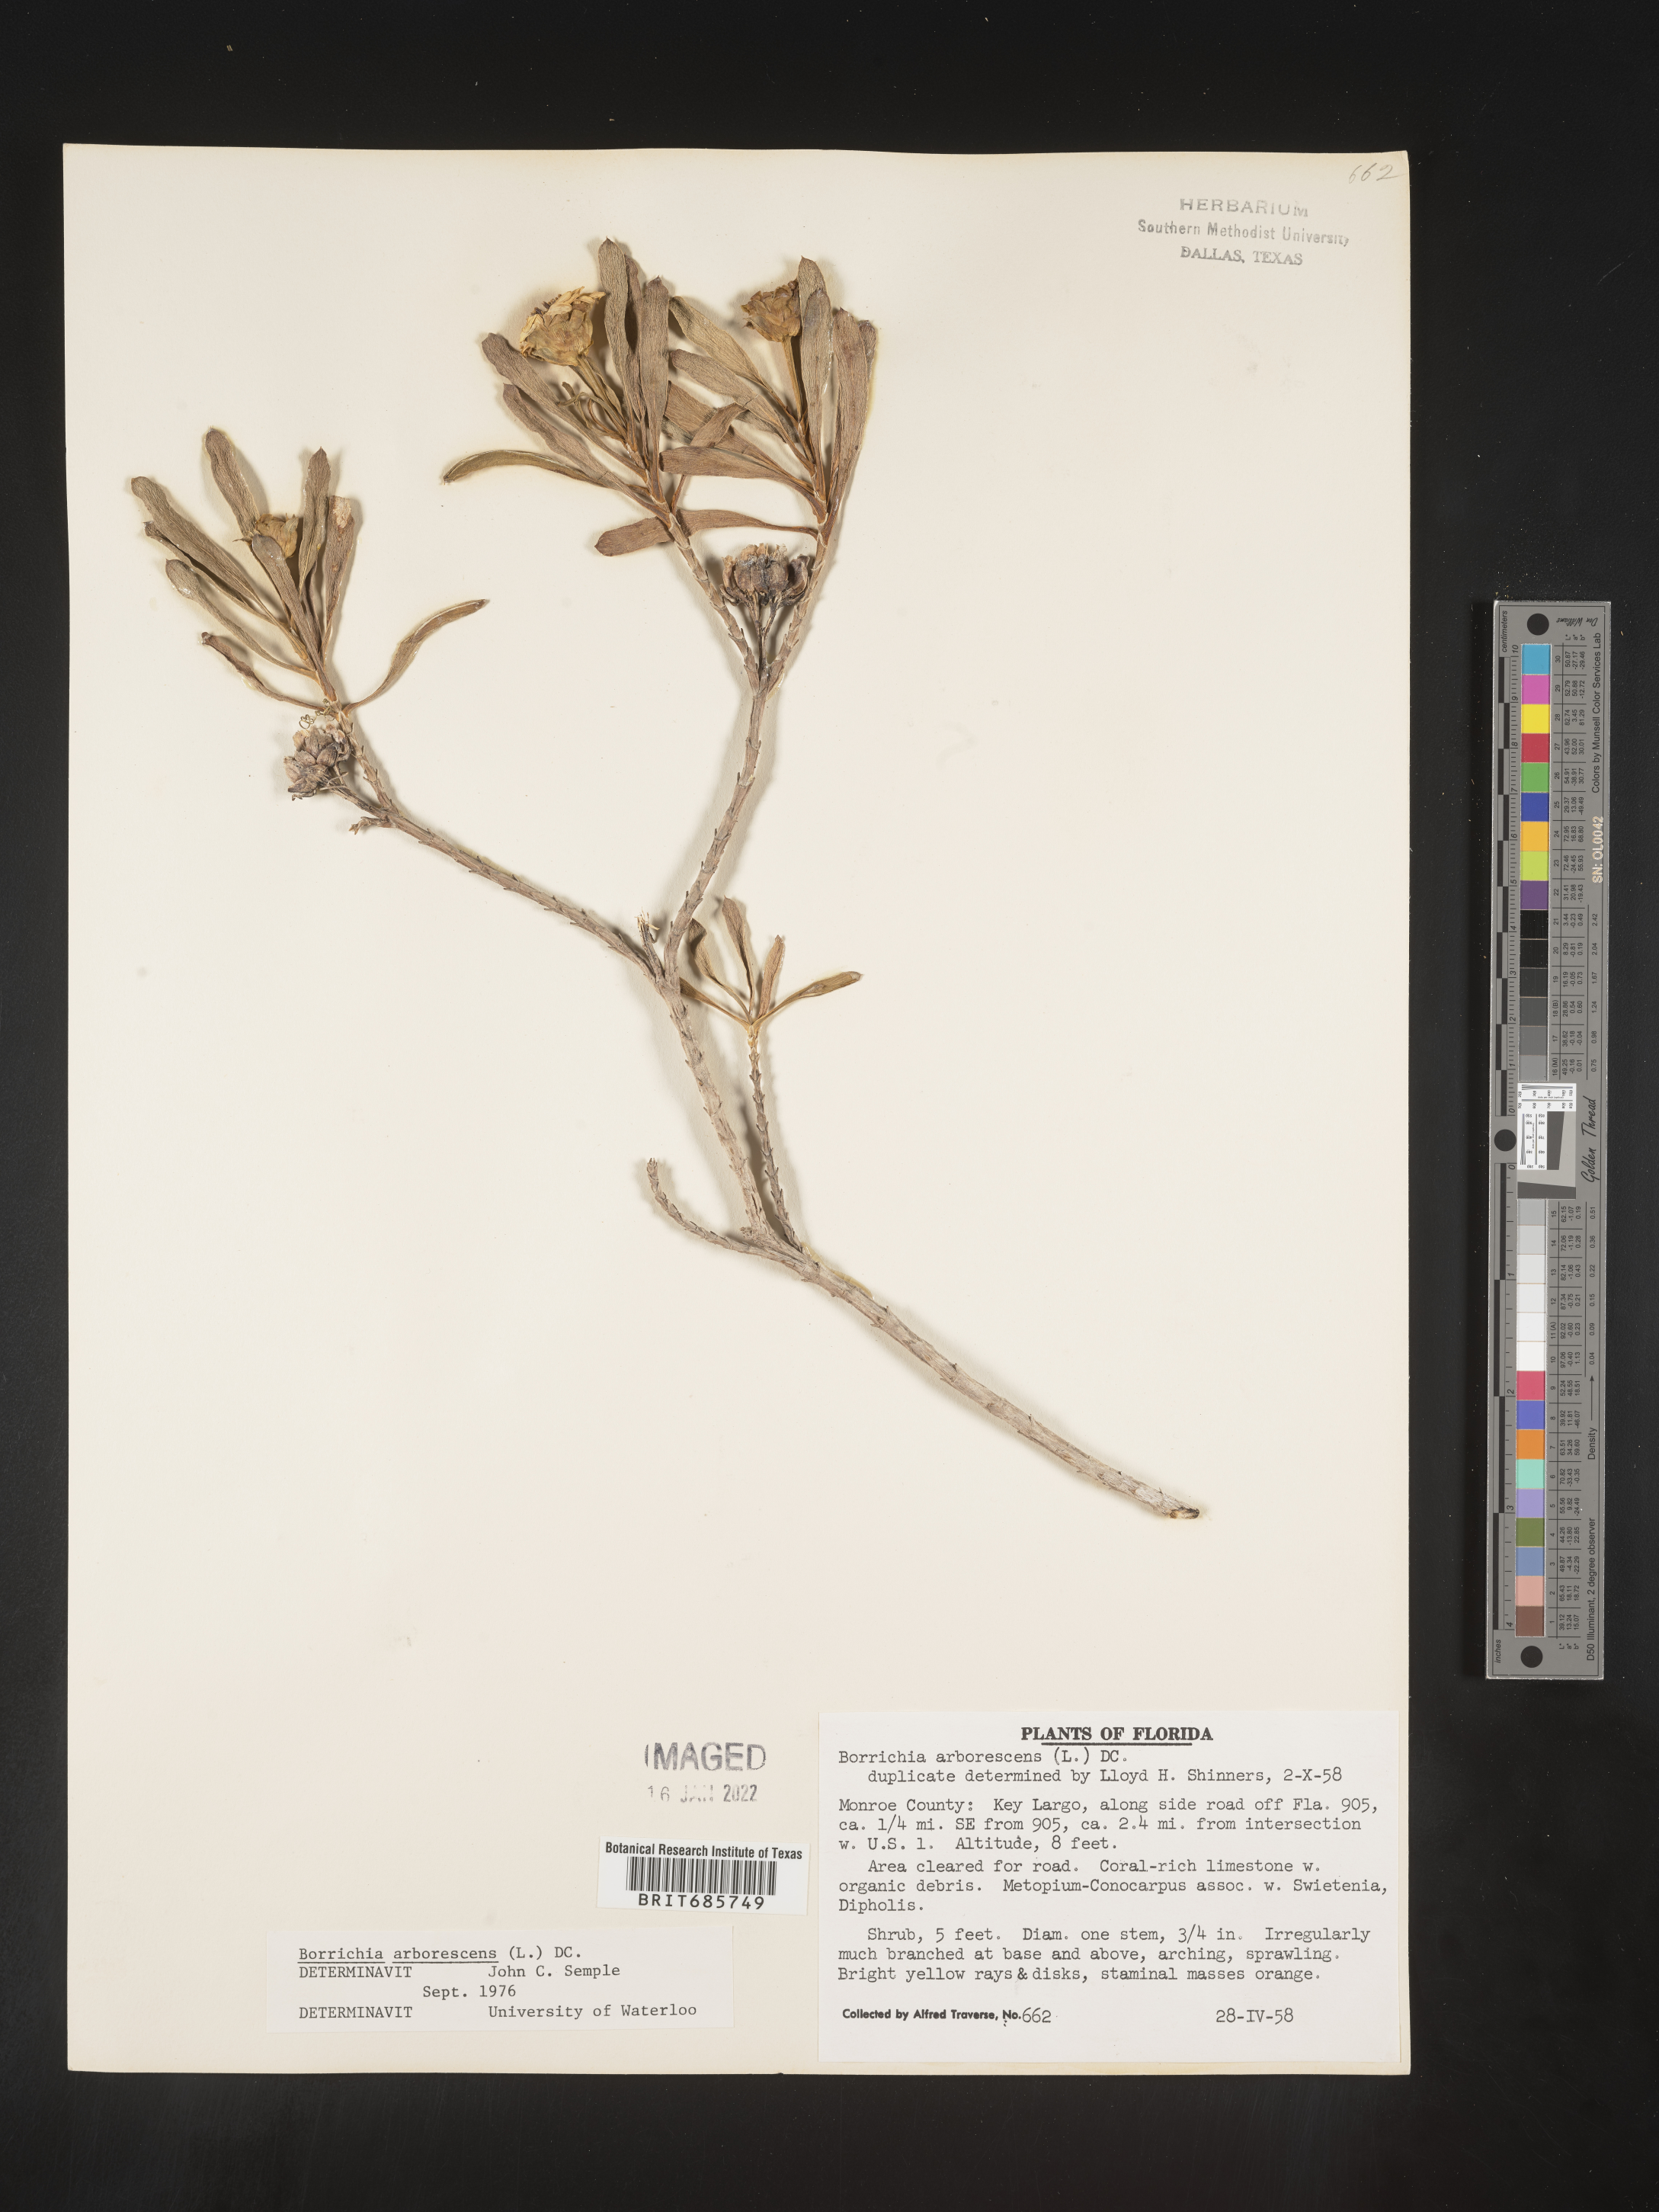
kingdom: Plantae
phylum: Tracheophyta
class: Magnoliopsida
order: Asterales
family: Asteraceae
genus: Borrichia
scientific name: Borrichia frutescens
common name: Sea oxeye
